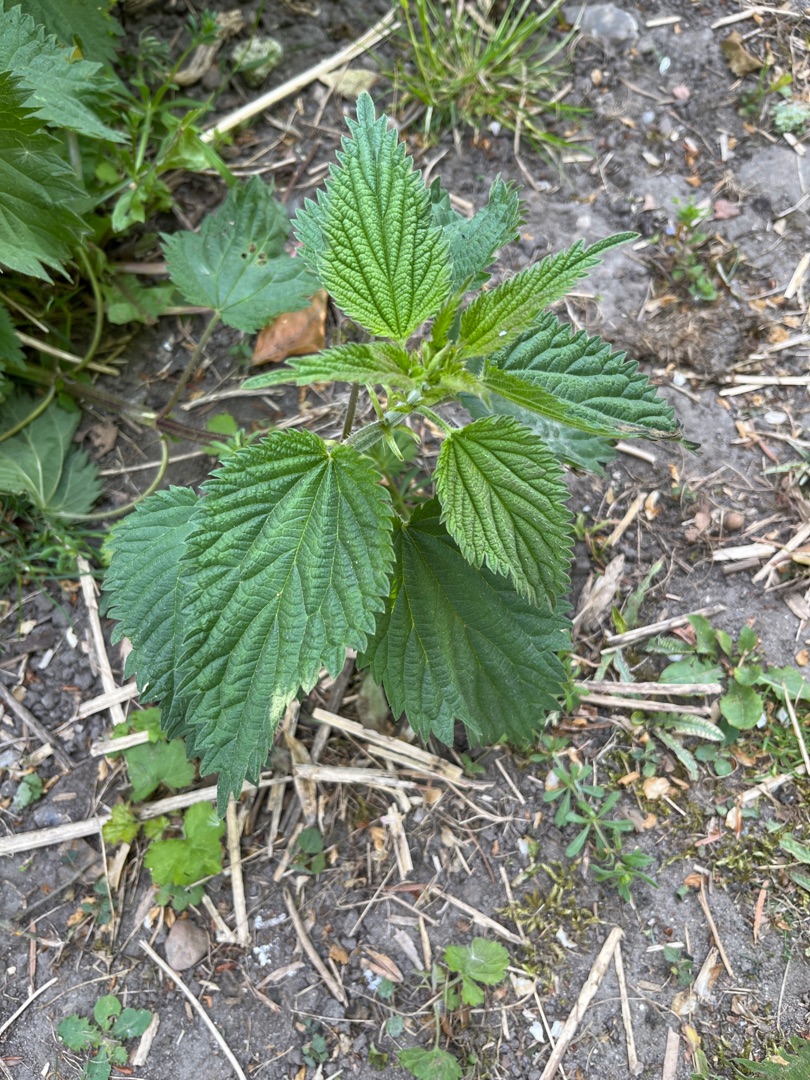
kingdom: Plantae
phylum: Tracheophyta
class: Magnoliopsida
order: Rosales
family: Urticaceae
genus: Urtica
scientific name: Urtica dioica
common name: Stor nælde
